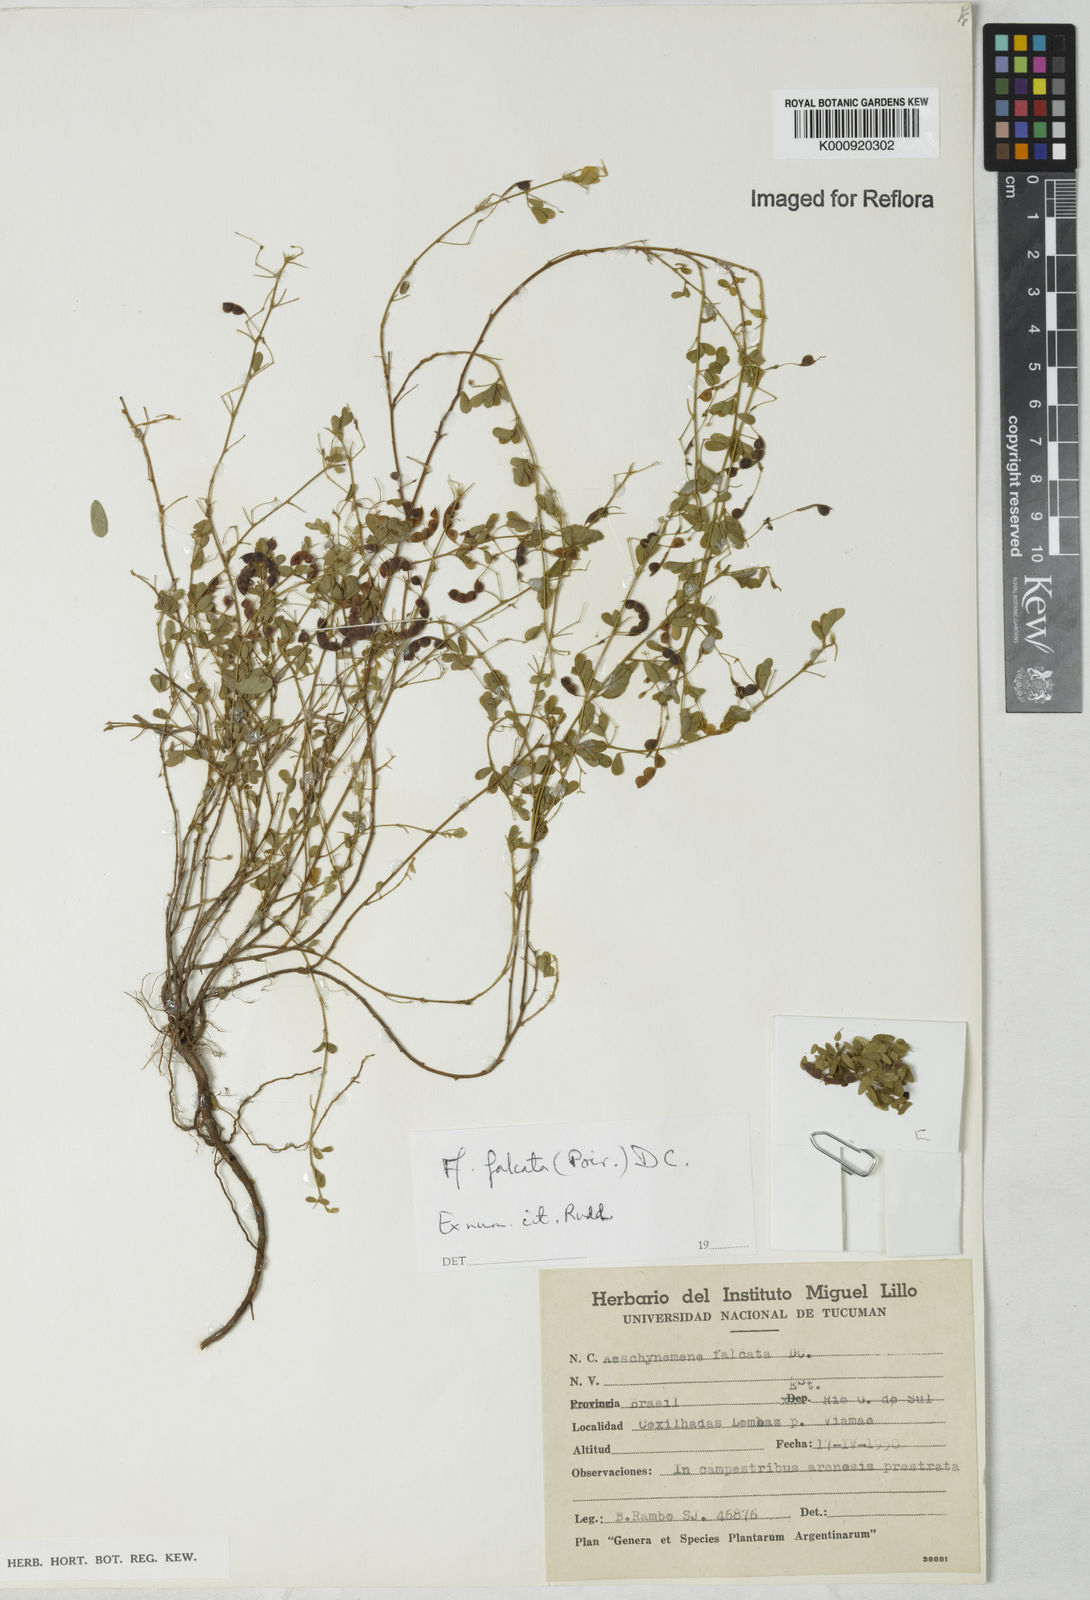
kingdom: Plantae
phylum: Tracheophyta
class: Magnoliopsida
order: Fabales
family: Fabaceae
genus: Aeschynomene
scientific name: Aeschynomene
